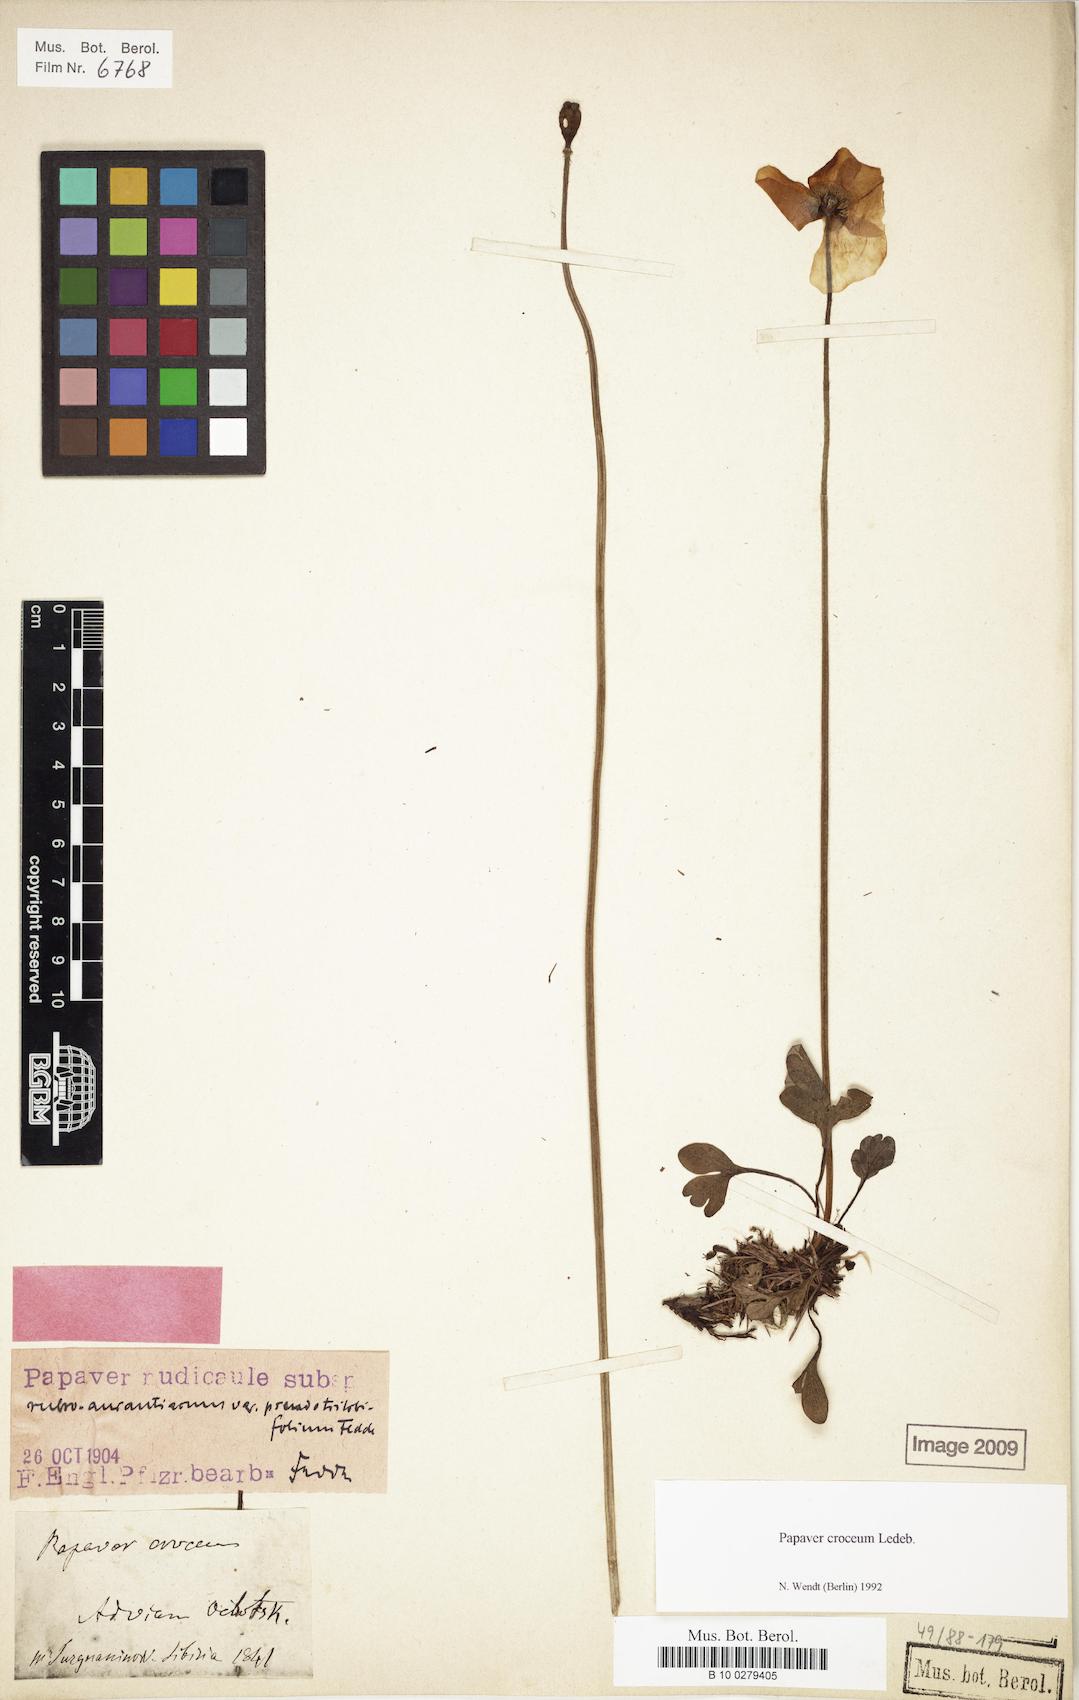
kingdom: Plantae
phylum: Tracheophyta
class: Magnoliopsida
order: Ranunculales
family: Papaveraceae
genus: Papaver
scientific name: Papaver croceum
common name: Siberian poppy
